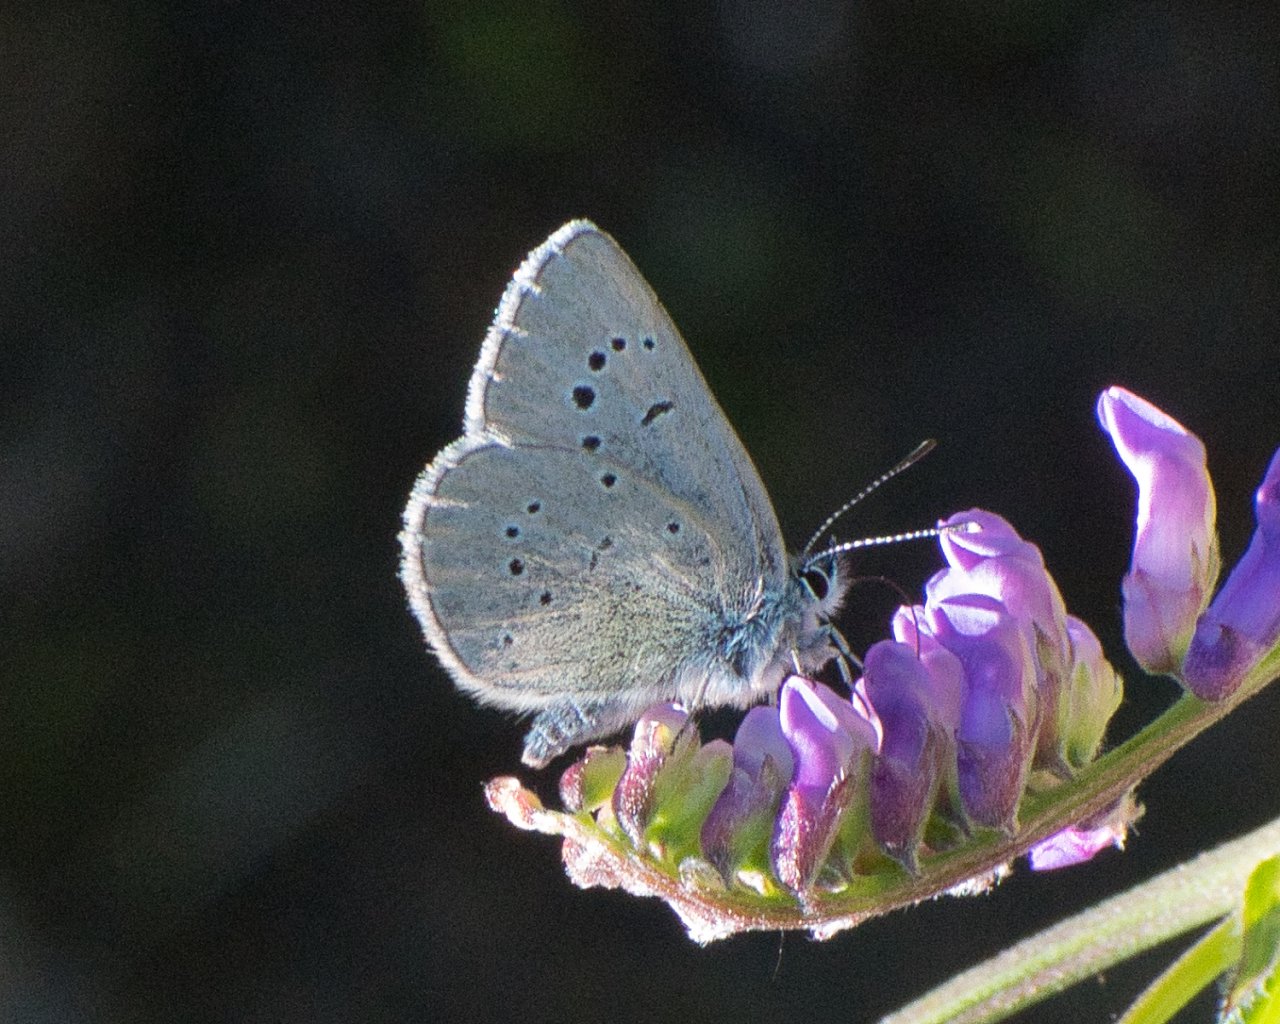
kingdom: Animalia
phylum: Arthropoda
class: Insecta
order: Lepidoptera
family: Lycaenidae
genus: Glaucopsyche
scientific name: Glaucopsyche lygdamus
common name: Silvery Blue
